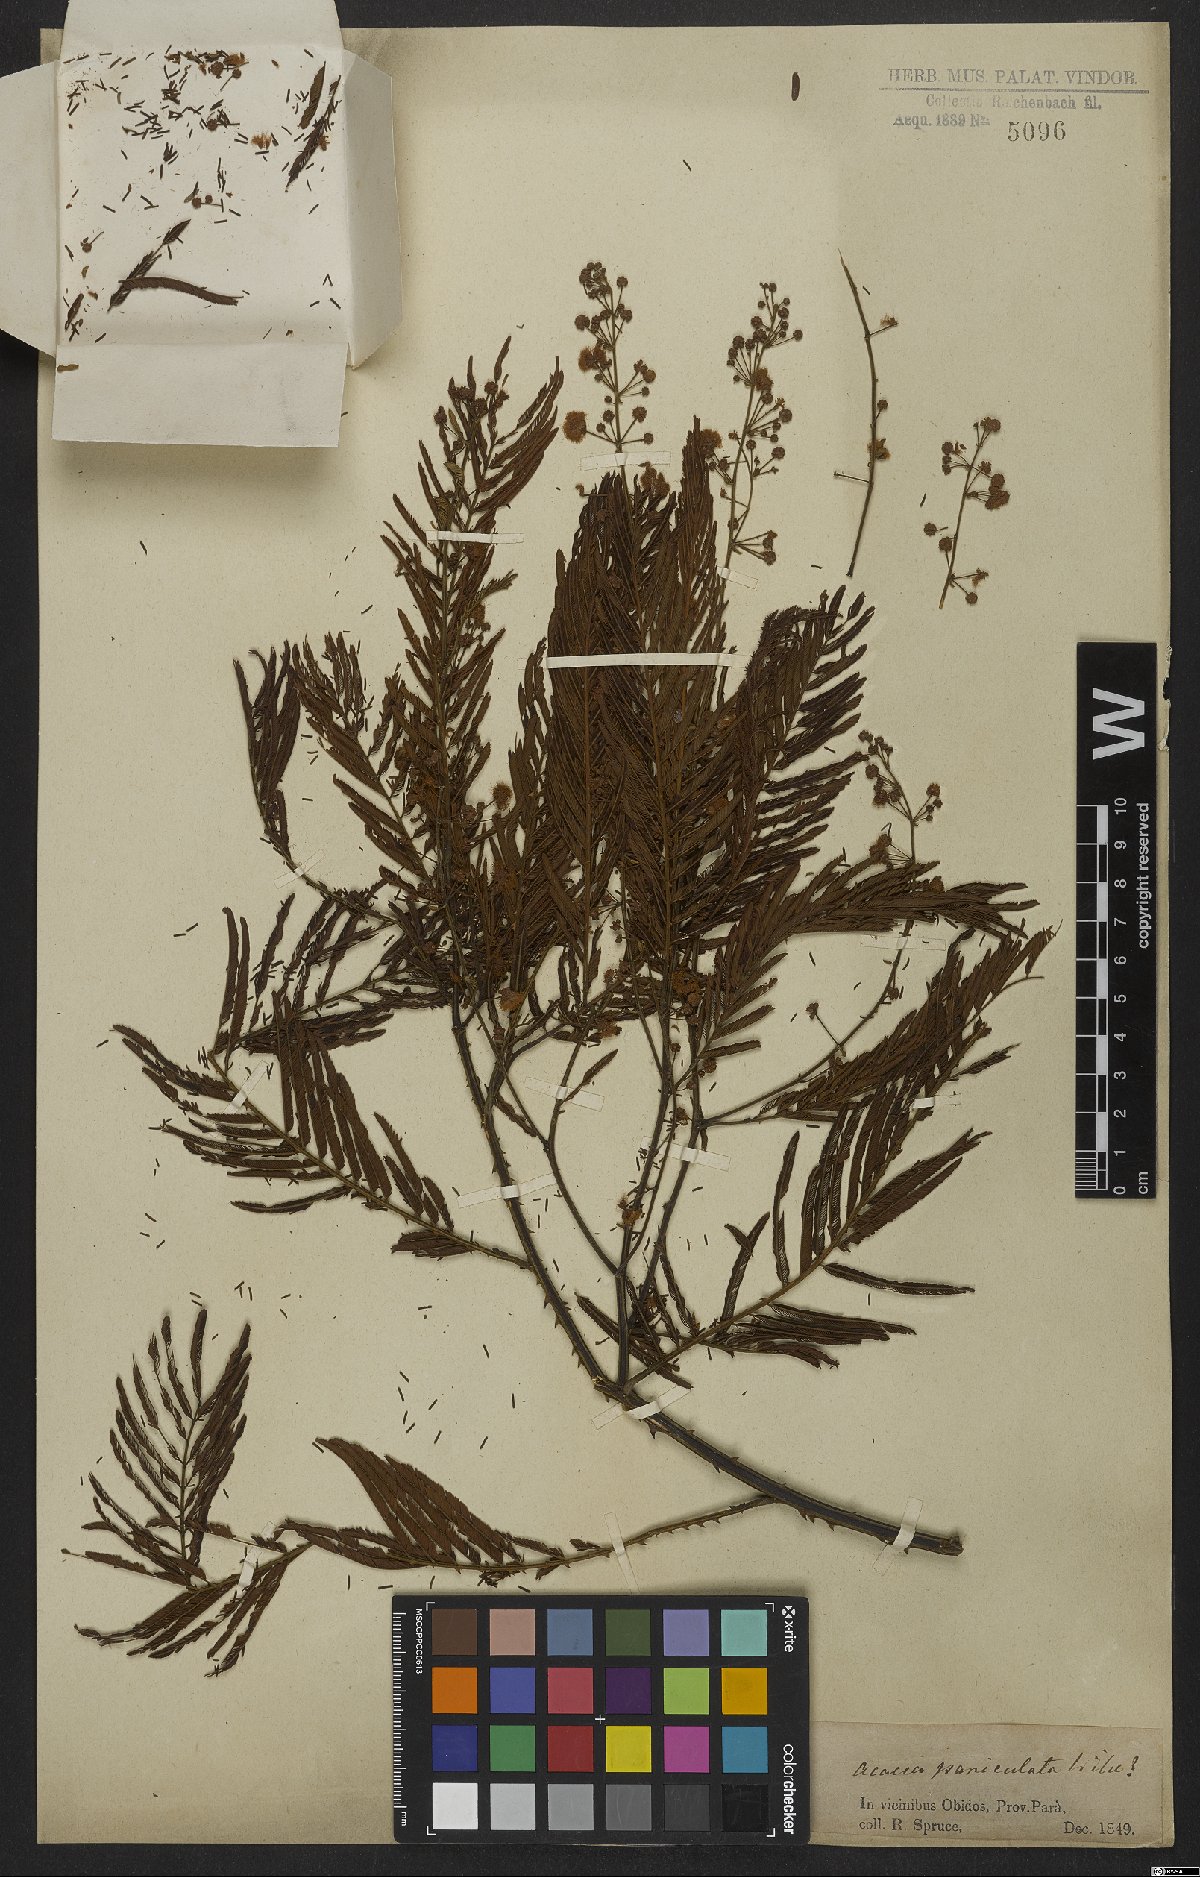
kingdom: Plantae
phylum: Tracheophyta
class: Magnoliopsida
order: Fabales
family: Fabaceae
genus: Senegalia
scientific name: Senegalia paniculata
